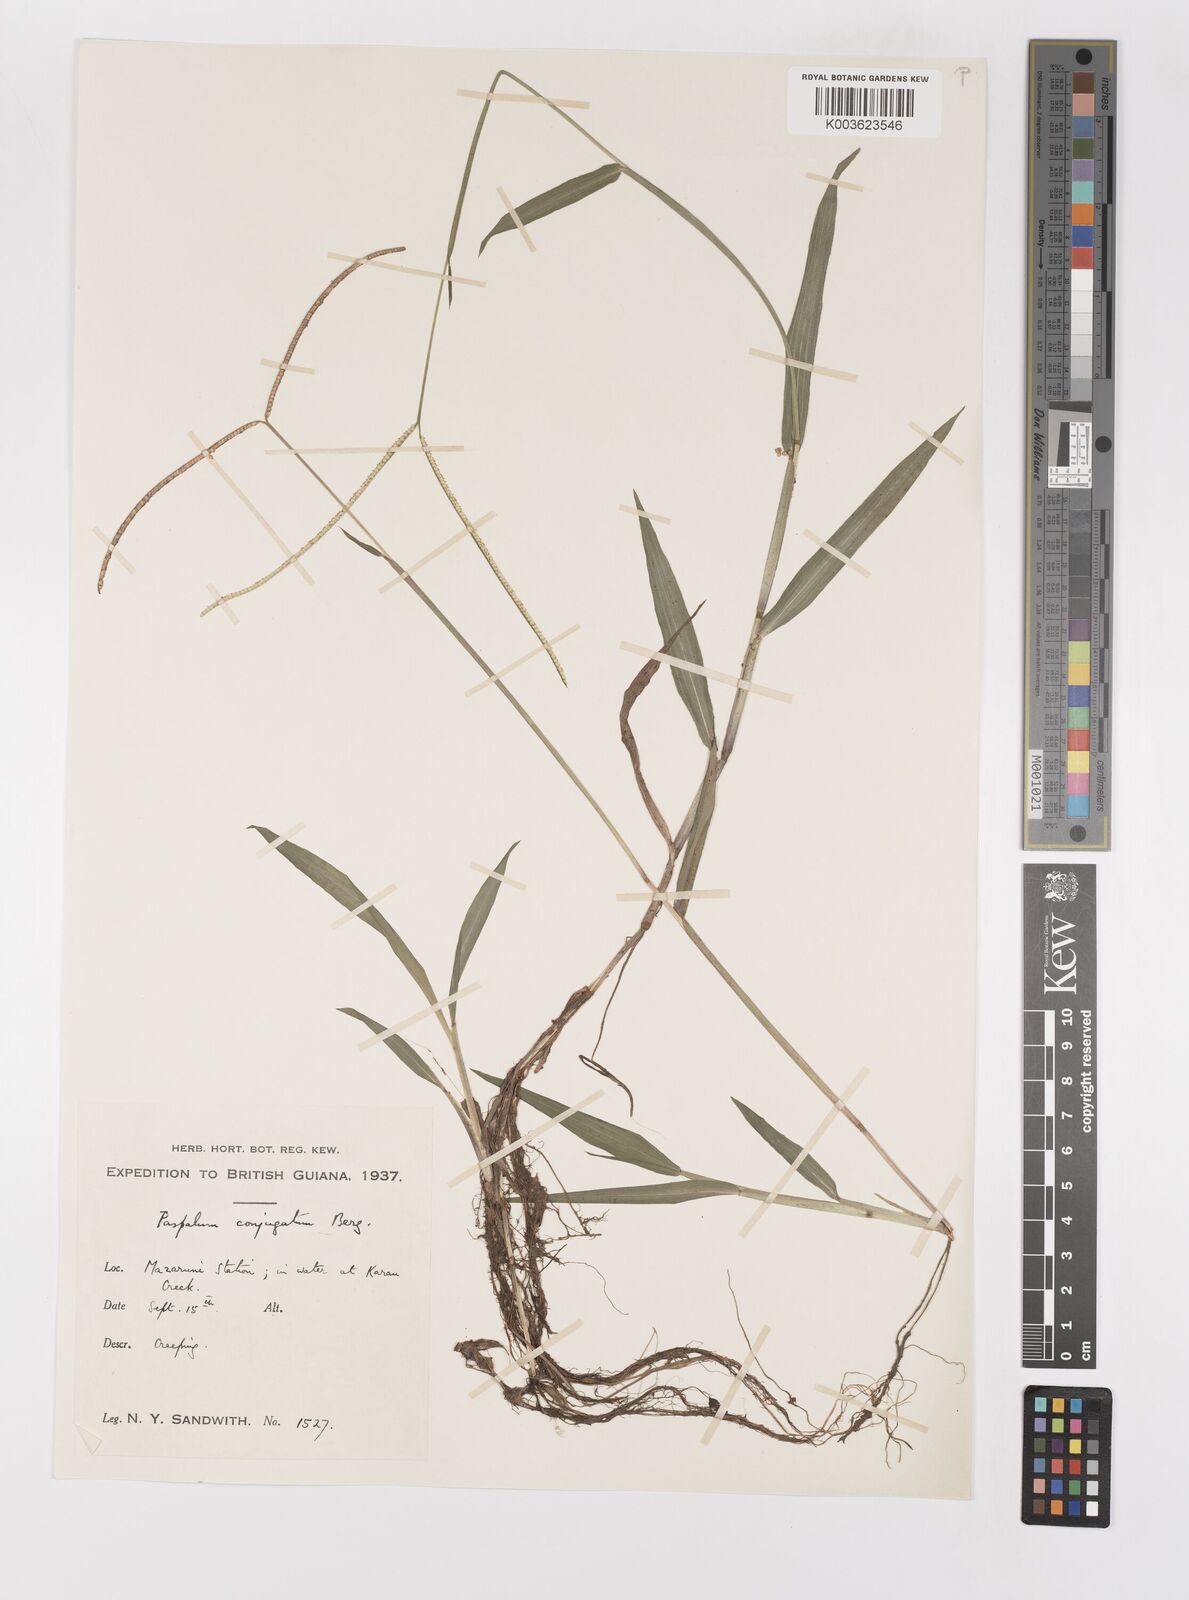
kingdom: Plantae
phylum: Tracheophyta
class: Liliopsida
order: Poales
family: Poaceae
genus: Paspalum
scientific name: Paspalum conjugatum
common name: Hilograss
